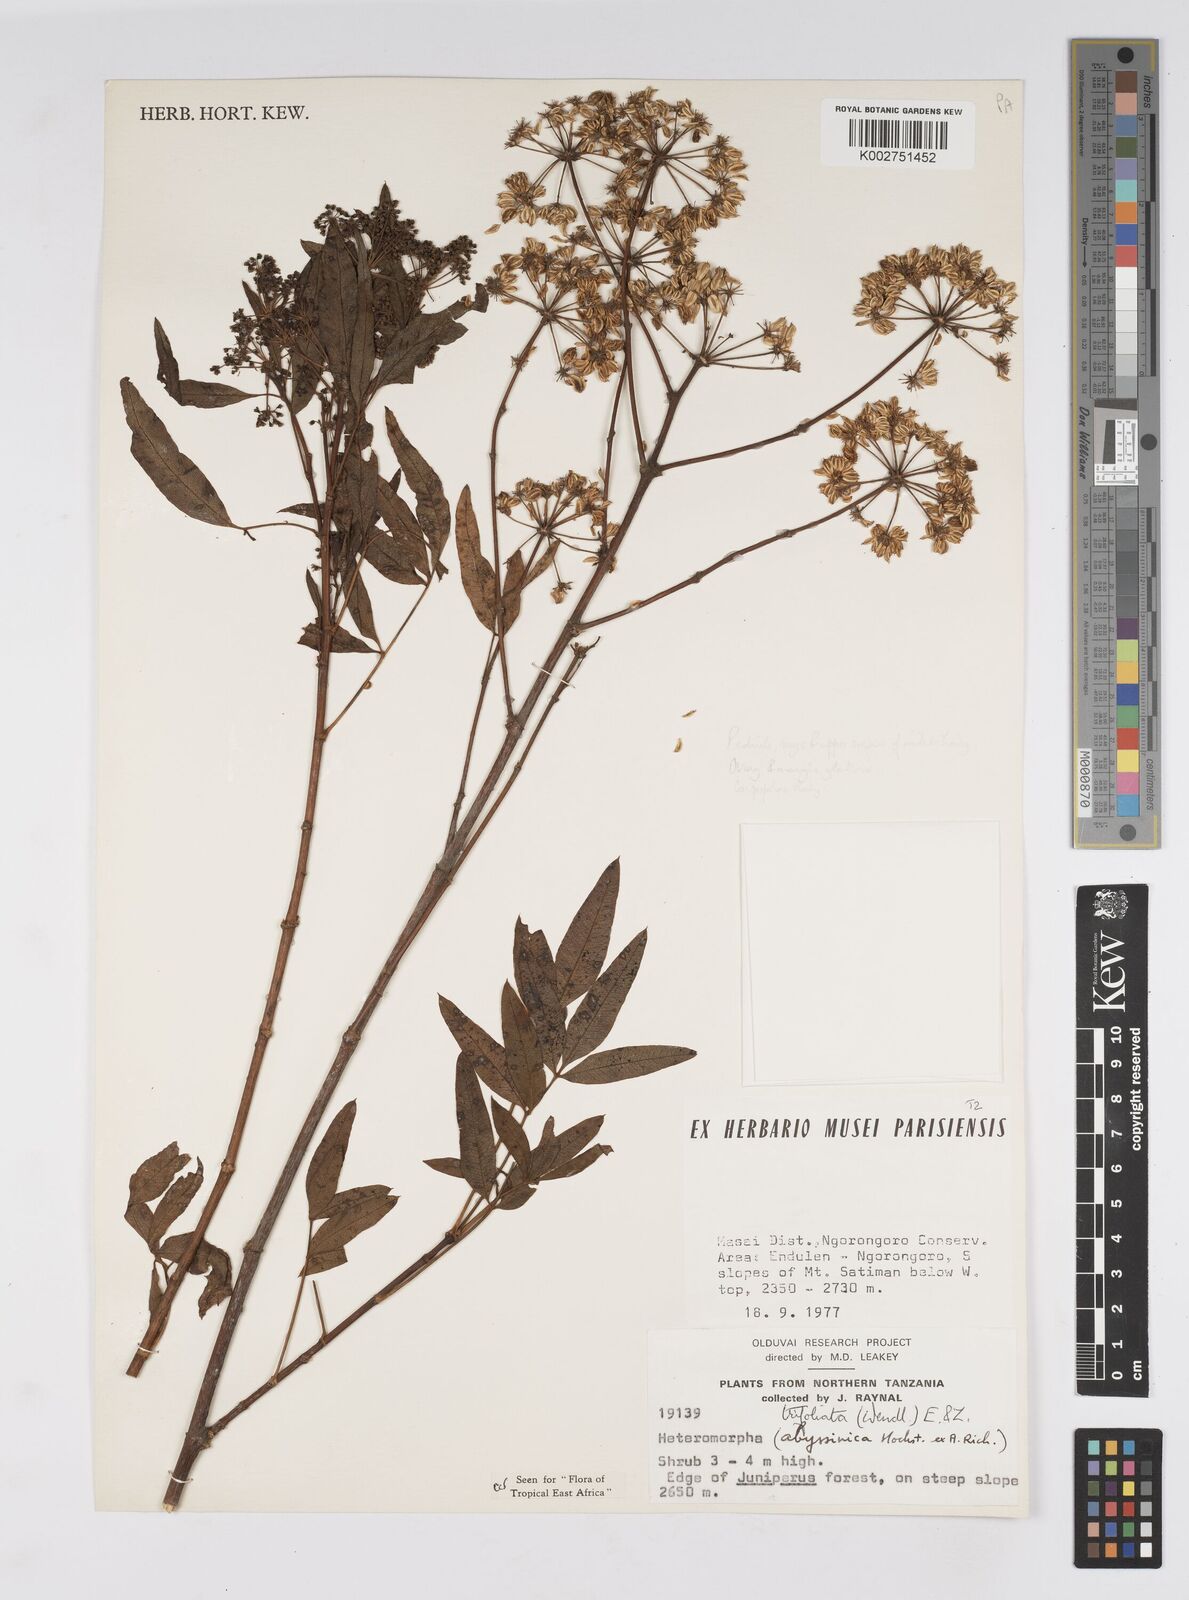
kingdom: Plantae
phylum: Tracheophyta
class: Magnoliopsida
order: Apiales
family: Apiaceae
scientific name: Apiaceae
